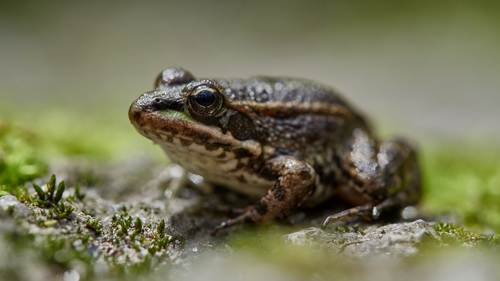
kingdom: Animalia
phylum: Chordata
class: Amphibia
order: Anura
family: Ranidae
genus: Pelophylax
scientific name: Pelophylax perezi
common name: Perez's frog
